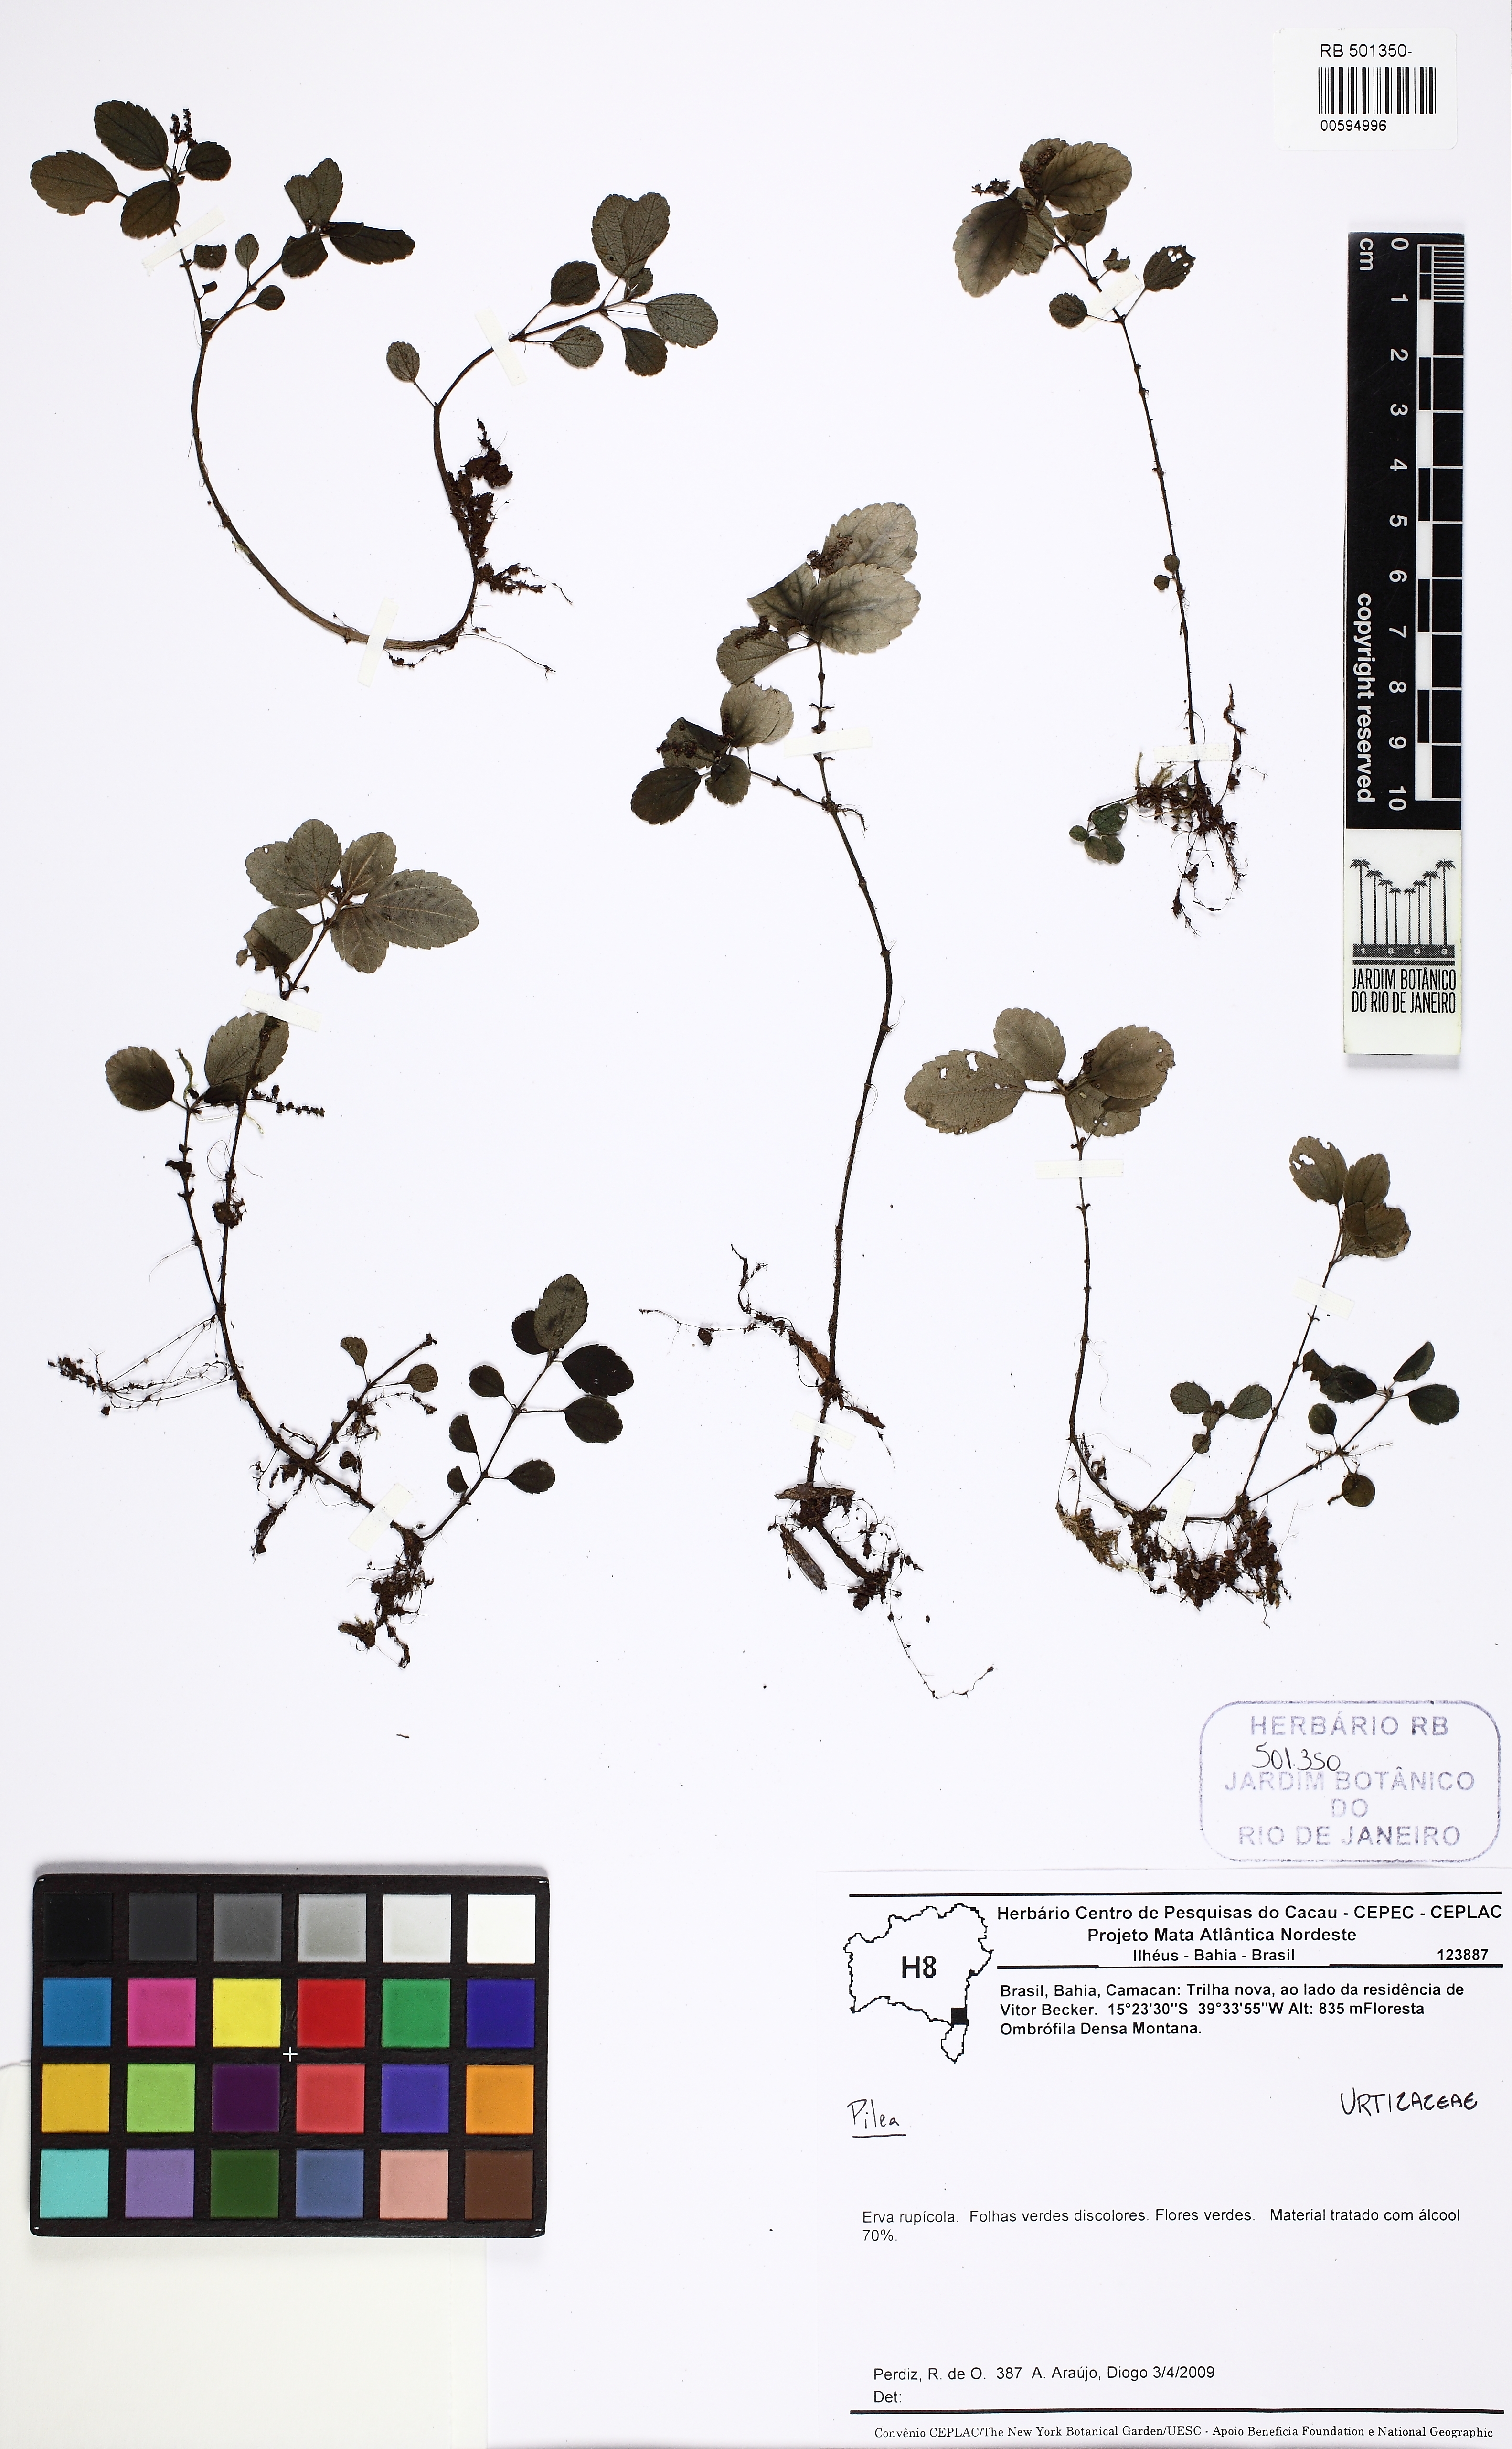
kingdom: Plantae
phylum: Tracheophyta
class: Magnoliopsida
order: Rosales
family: Urticaceae
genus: Pilea
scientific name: Pilea pubescens
